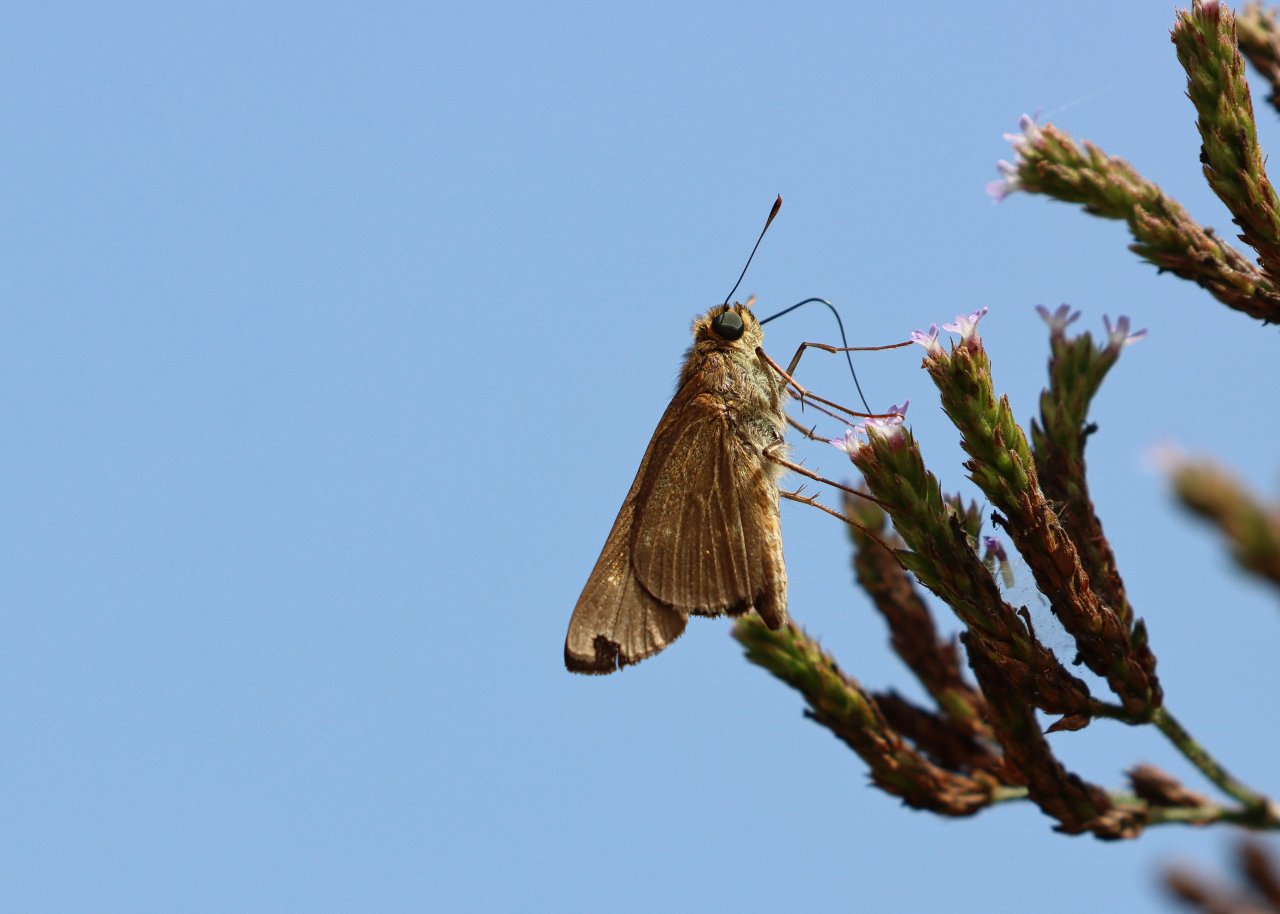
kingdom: Animalia
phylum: Arthropoda
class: Insecta
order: Lepidoptera
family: Hesperiidae
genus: Panoquina
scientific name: Panoquina ocola
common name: Ocola Skipper
